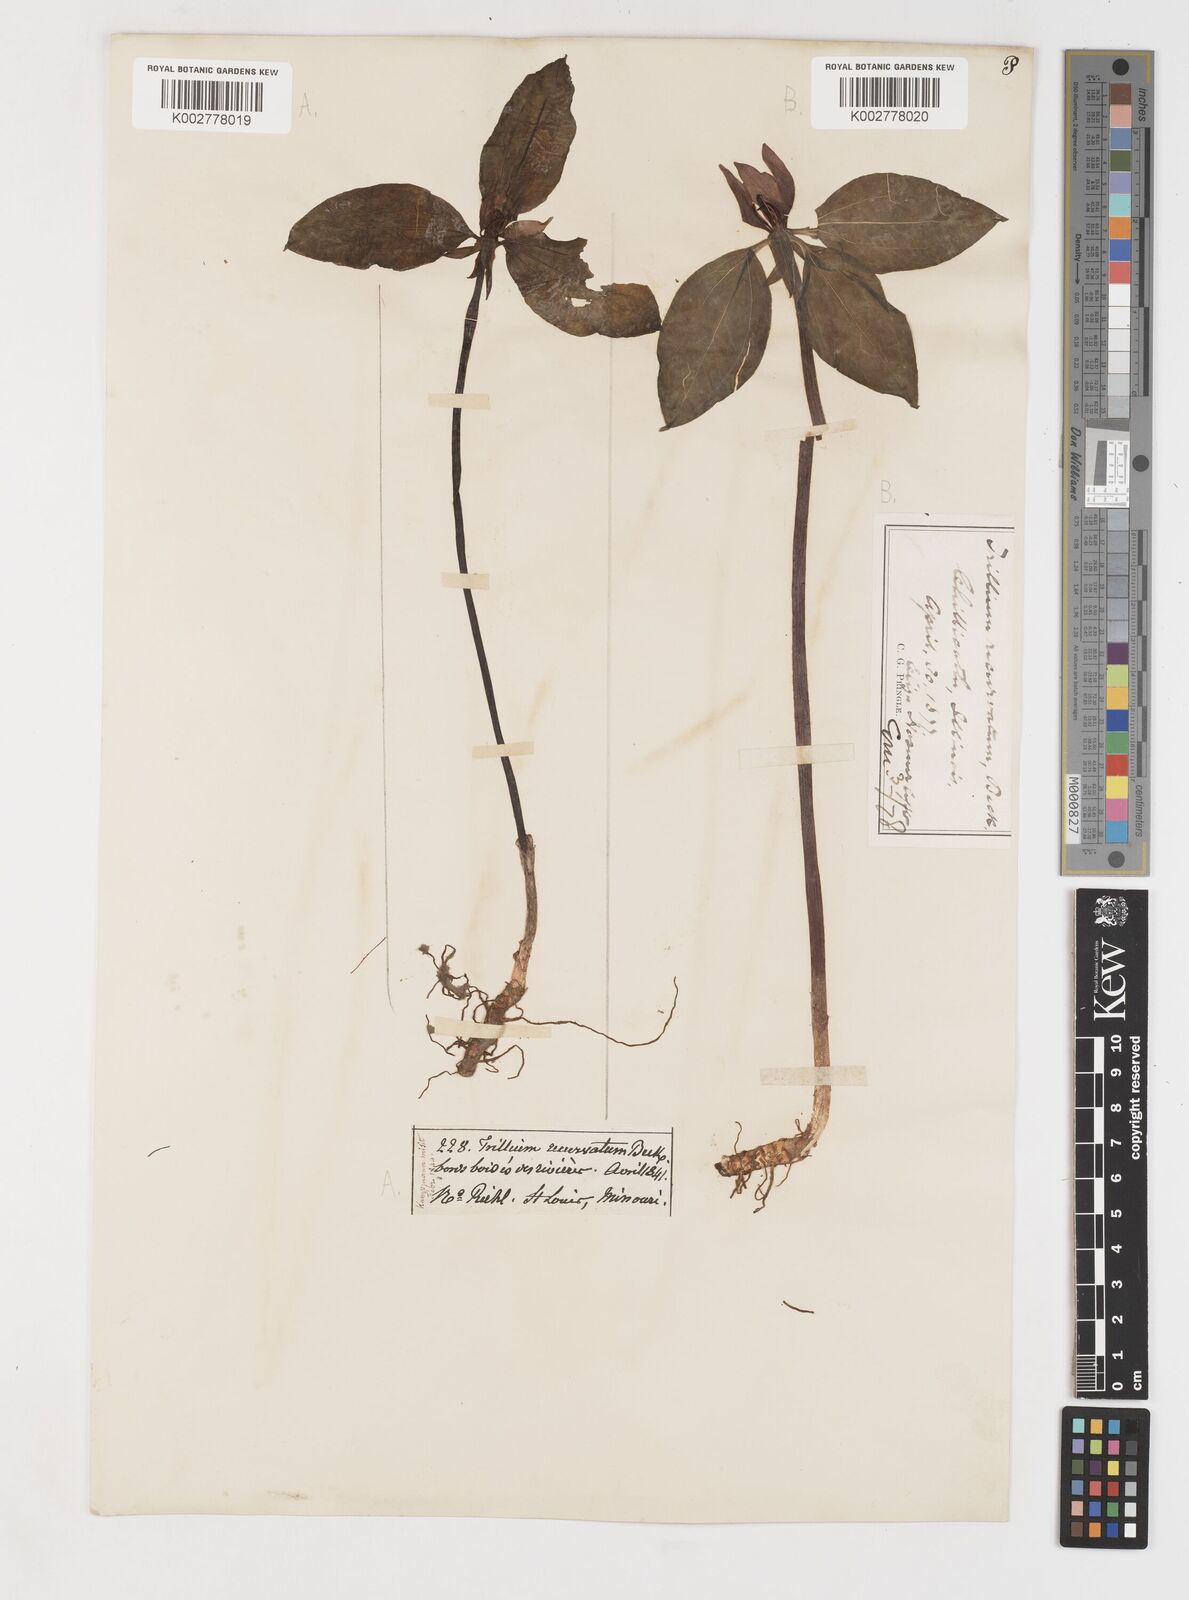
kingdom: Plantae
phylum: Tracheophyta
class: Liliopsida
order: Liliales
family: Melanthiaceae
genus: Trillium
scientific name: Trillium recurvatum
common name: Bloody butcher
